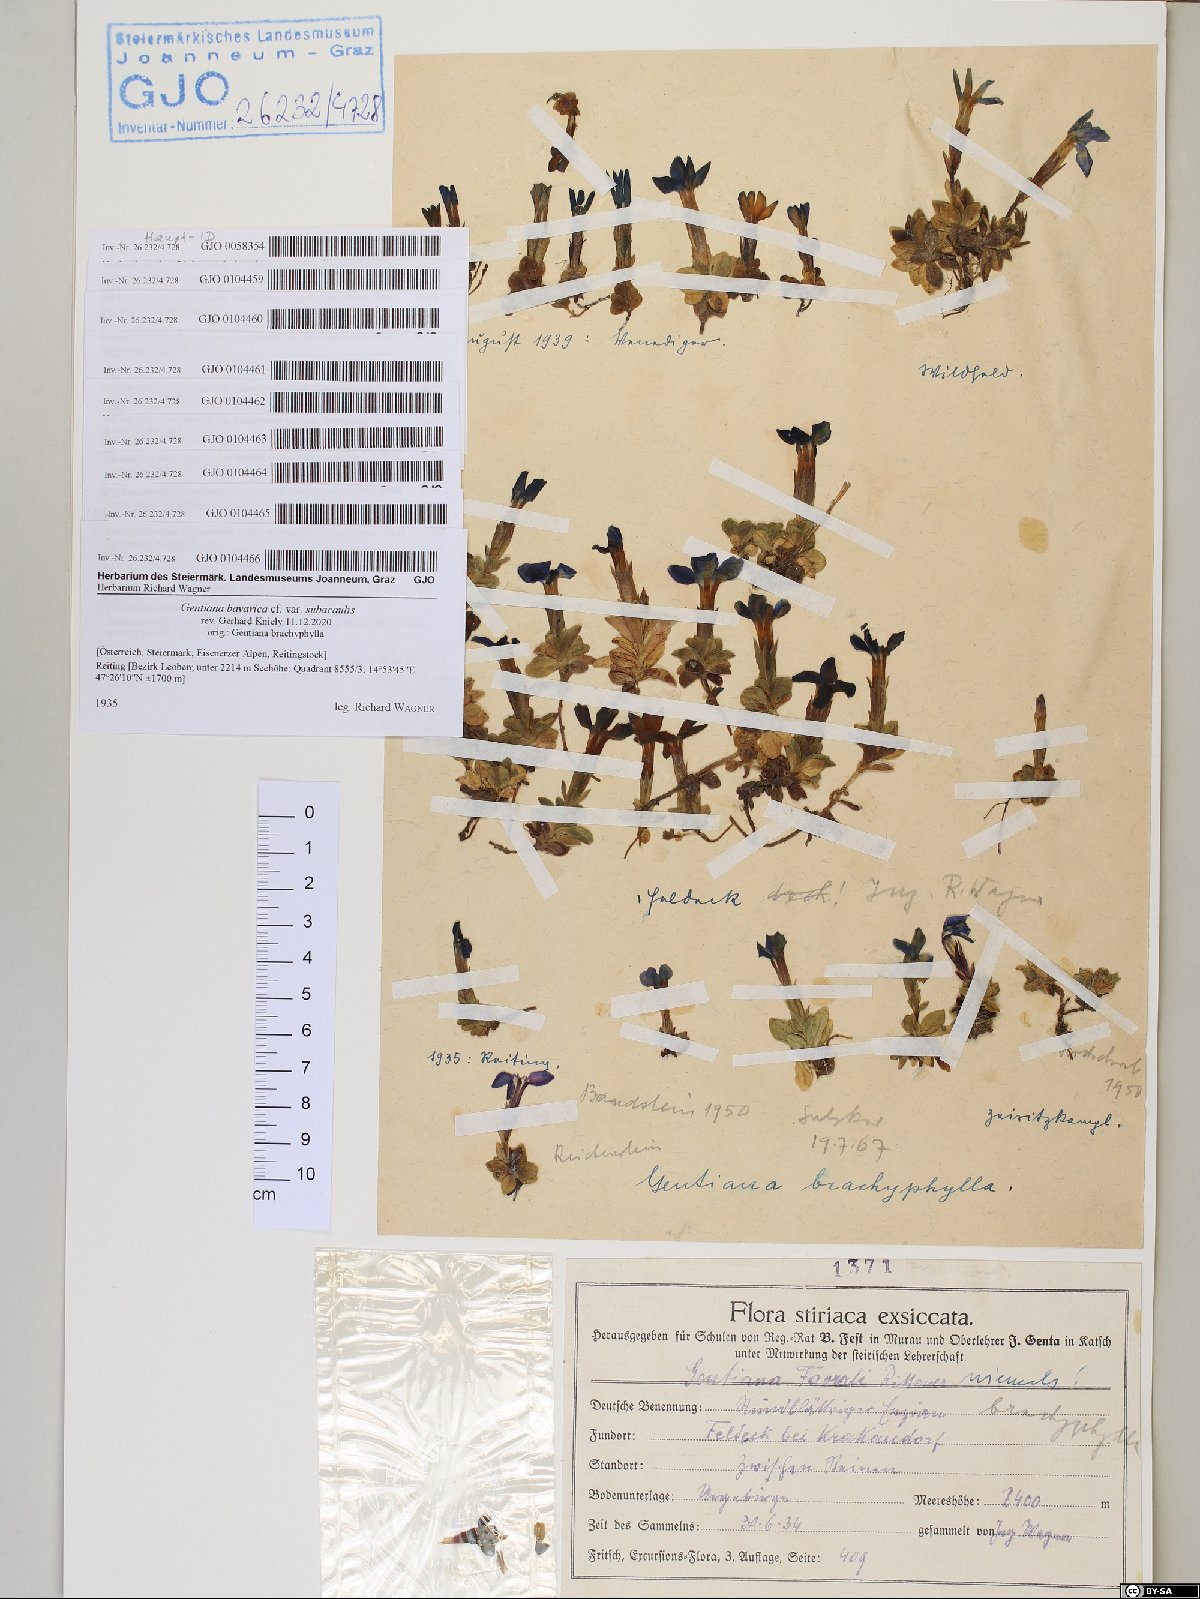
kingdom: Plantae
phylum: Tracheophyta
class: Magnoliopsida
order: Gentianales
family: Gentianaceae
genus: Gentiana
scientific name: Gentiana orbicularis
